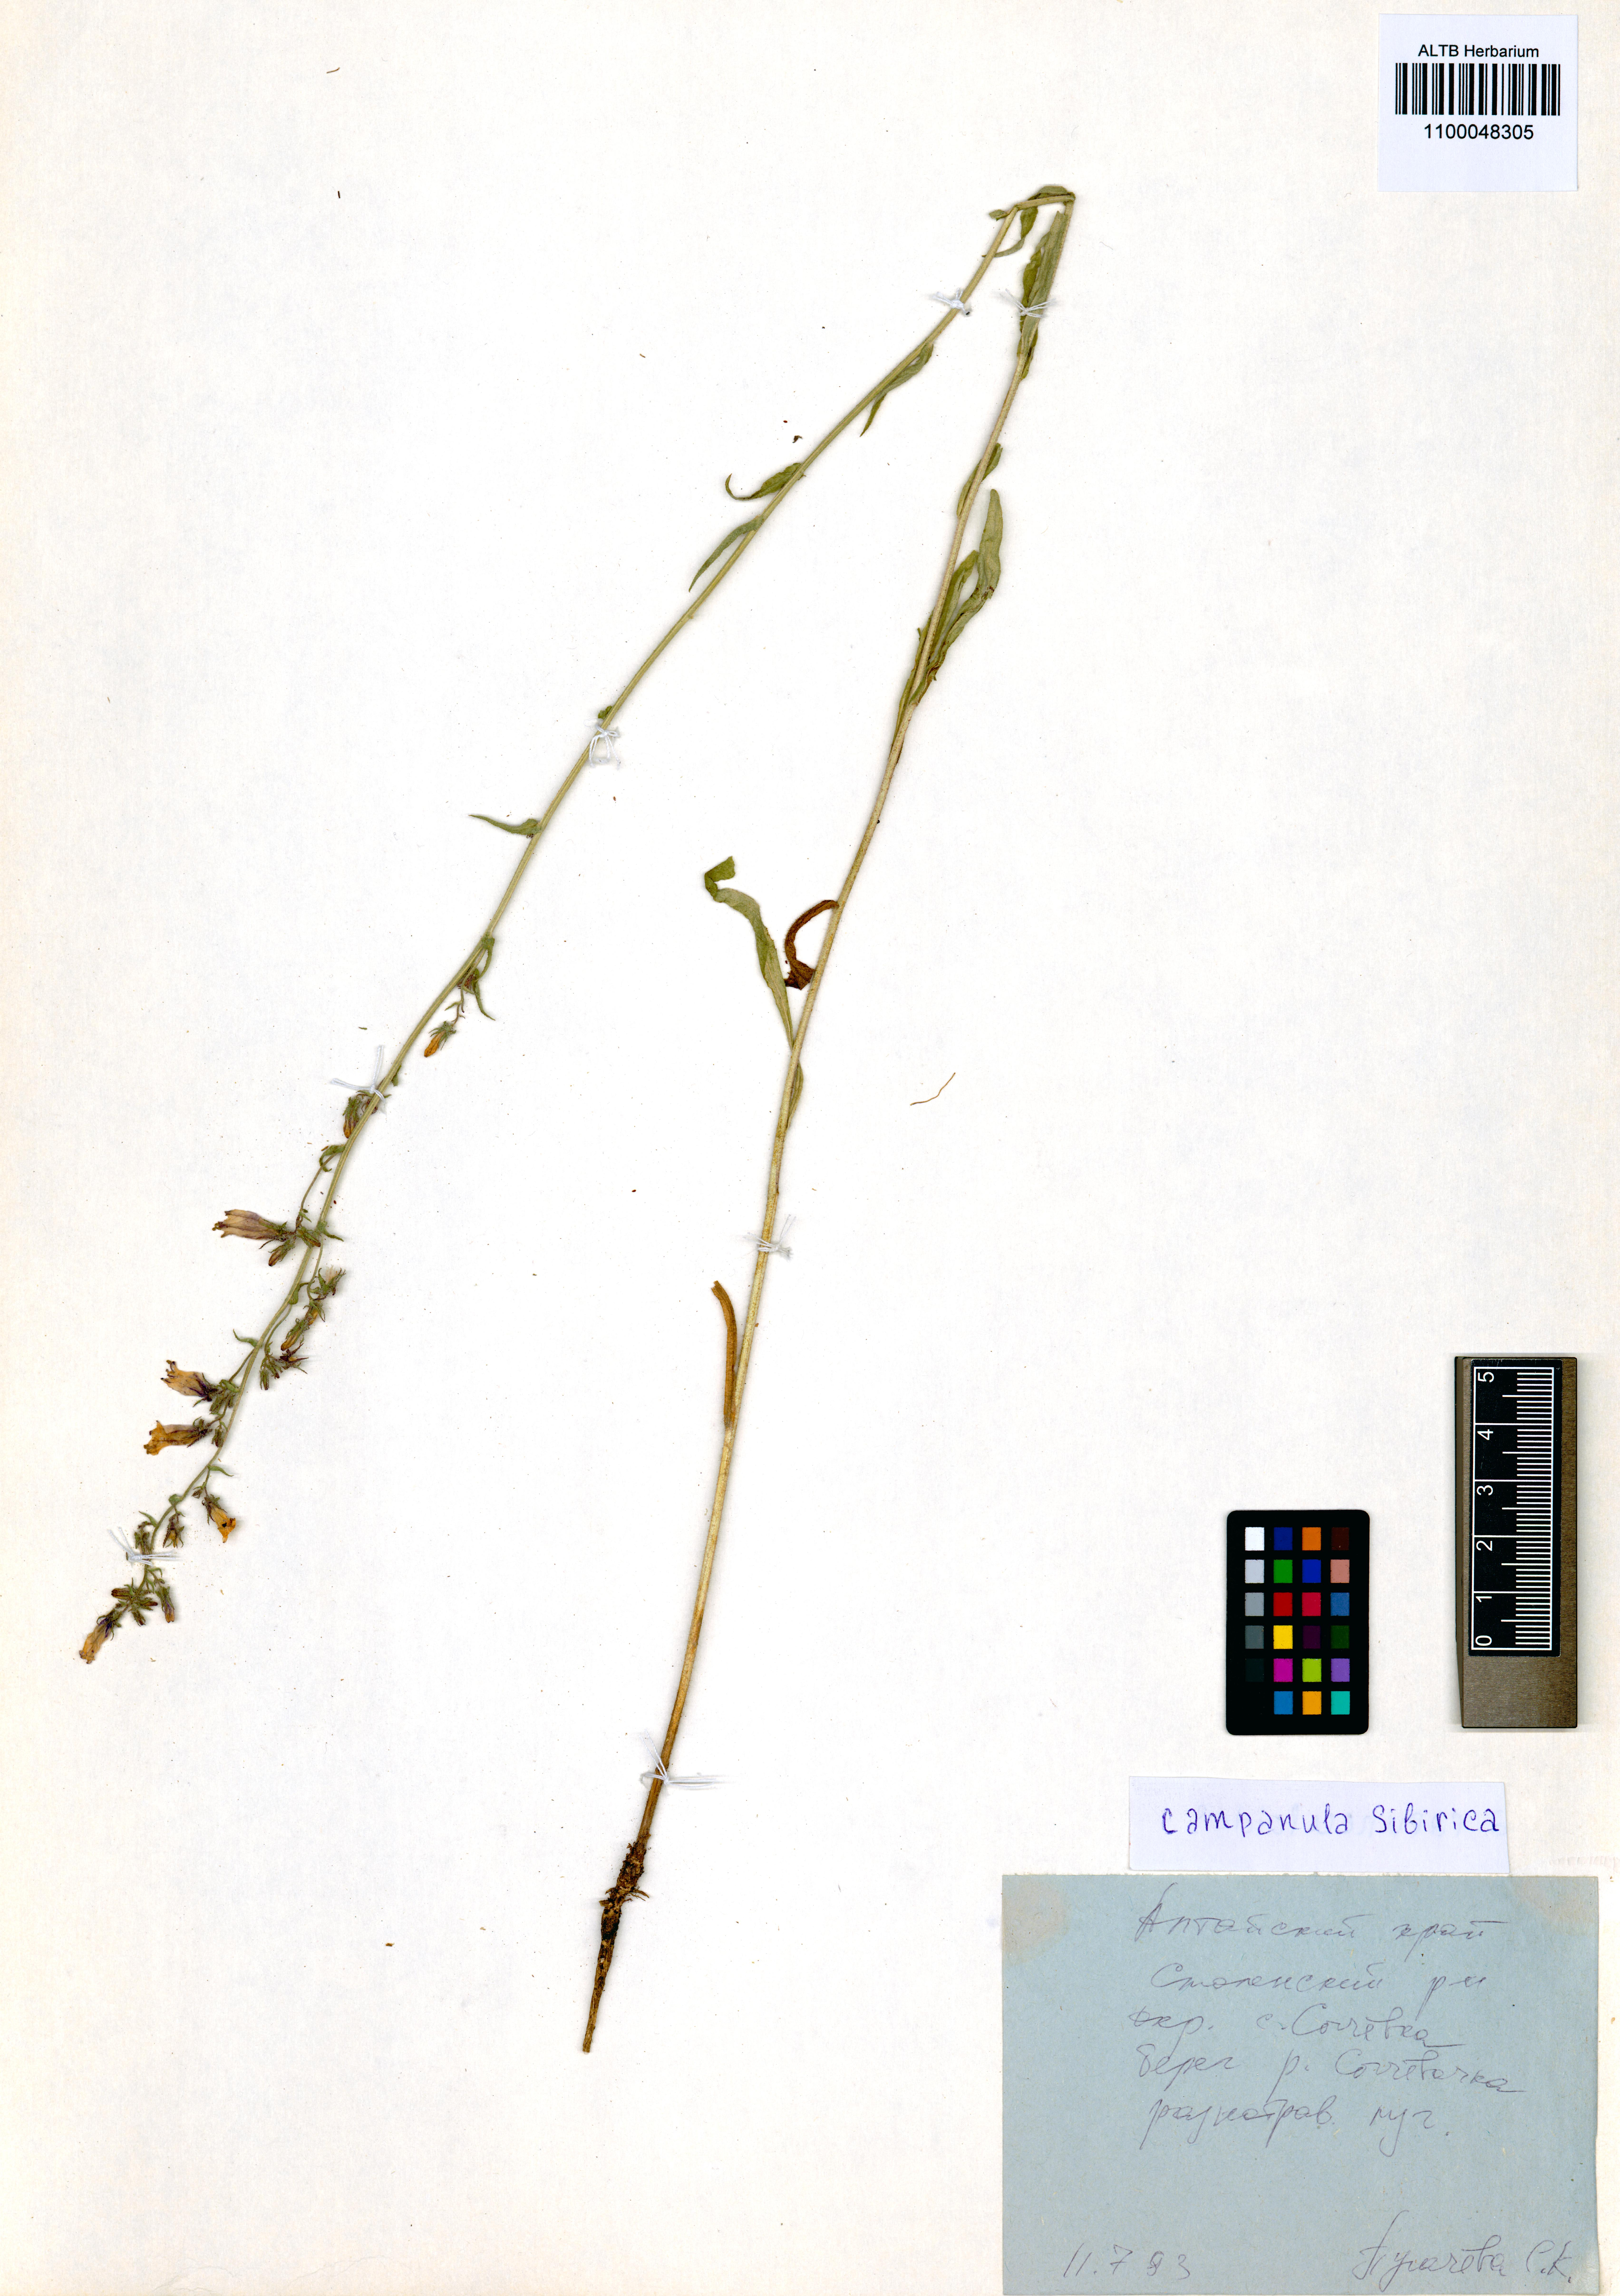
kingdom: Plantae
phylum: Tracheophyta
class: Magnoliopsida
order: Asterales
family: Campanulaceae
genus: Campanula
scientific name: Campanula sibirica
